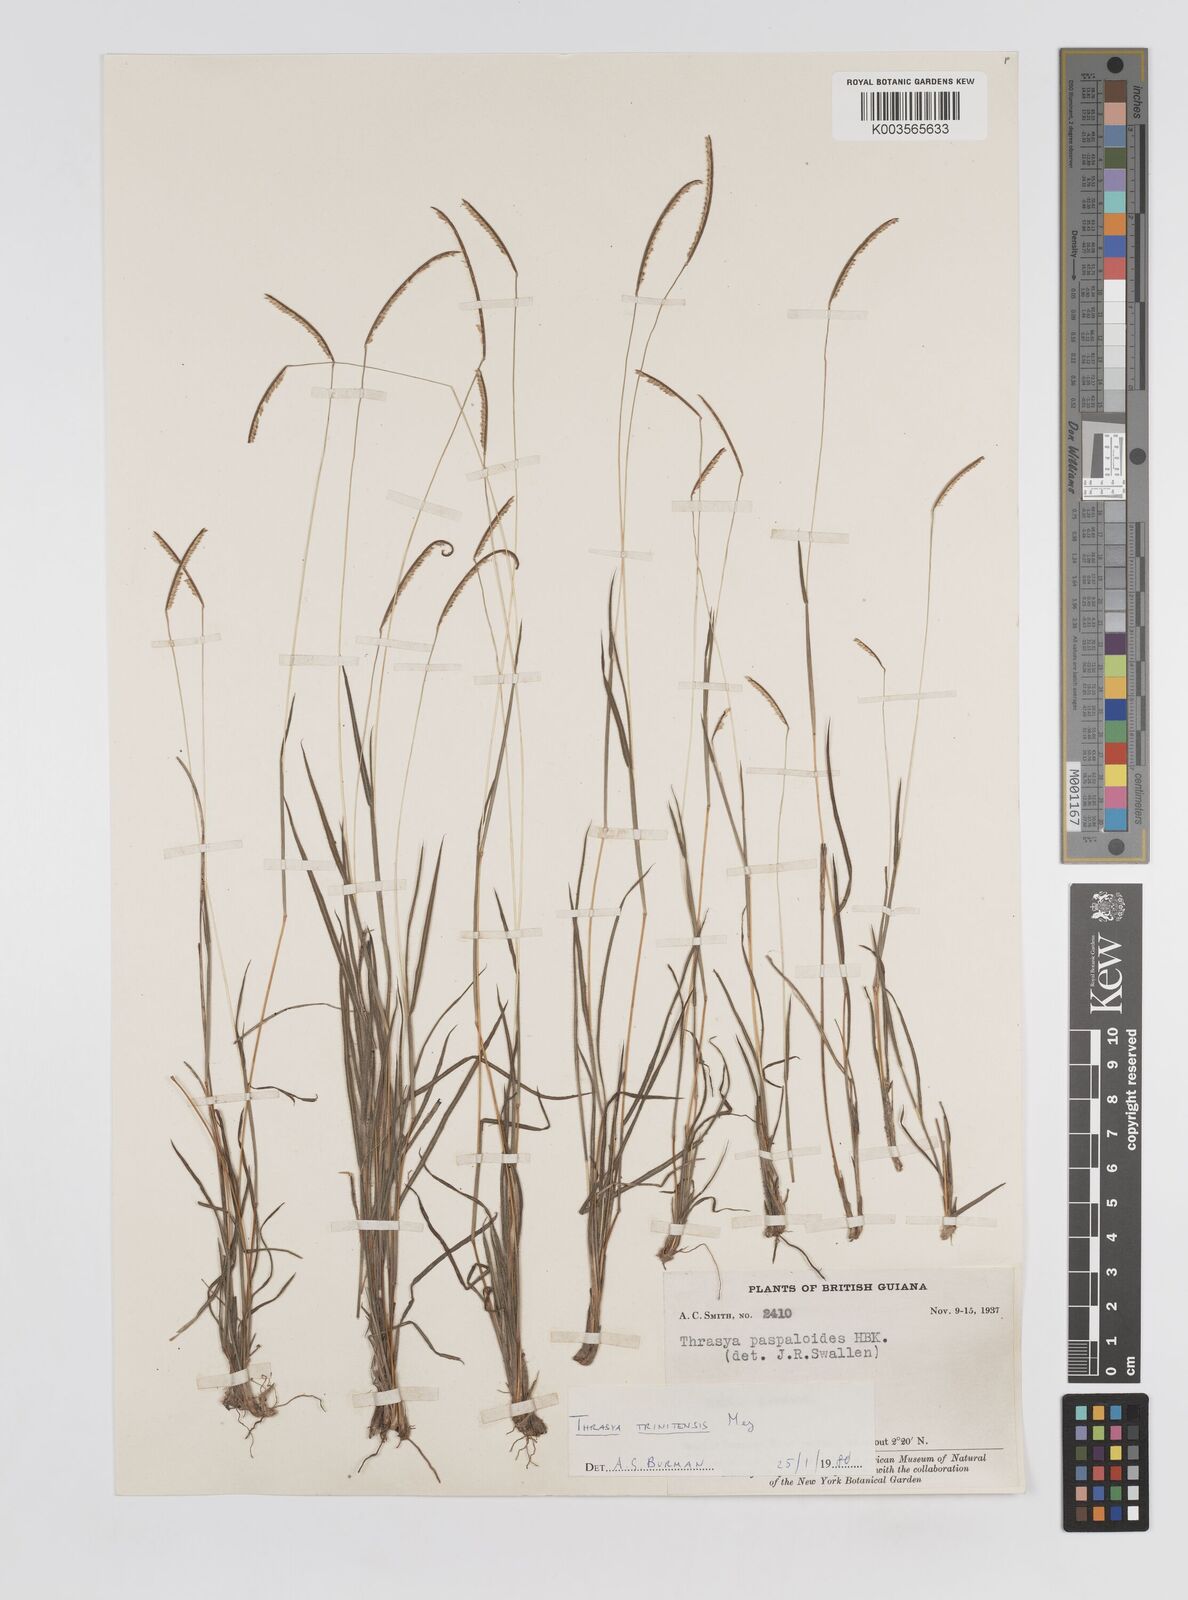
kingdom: Plantae
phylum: Tracheophyta
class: Liliopsida
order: Poales
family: Poaceae
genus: Paspalum
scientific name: Paspalum trinitense
